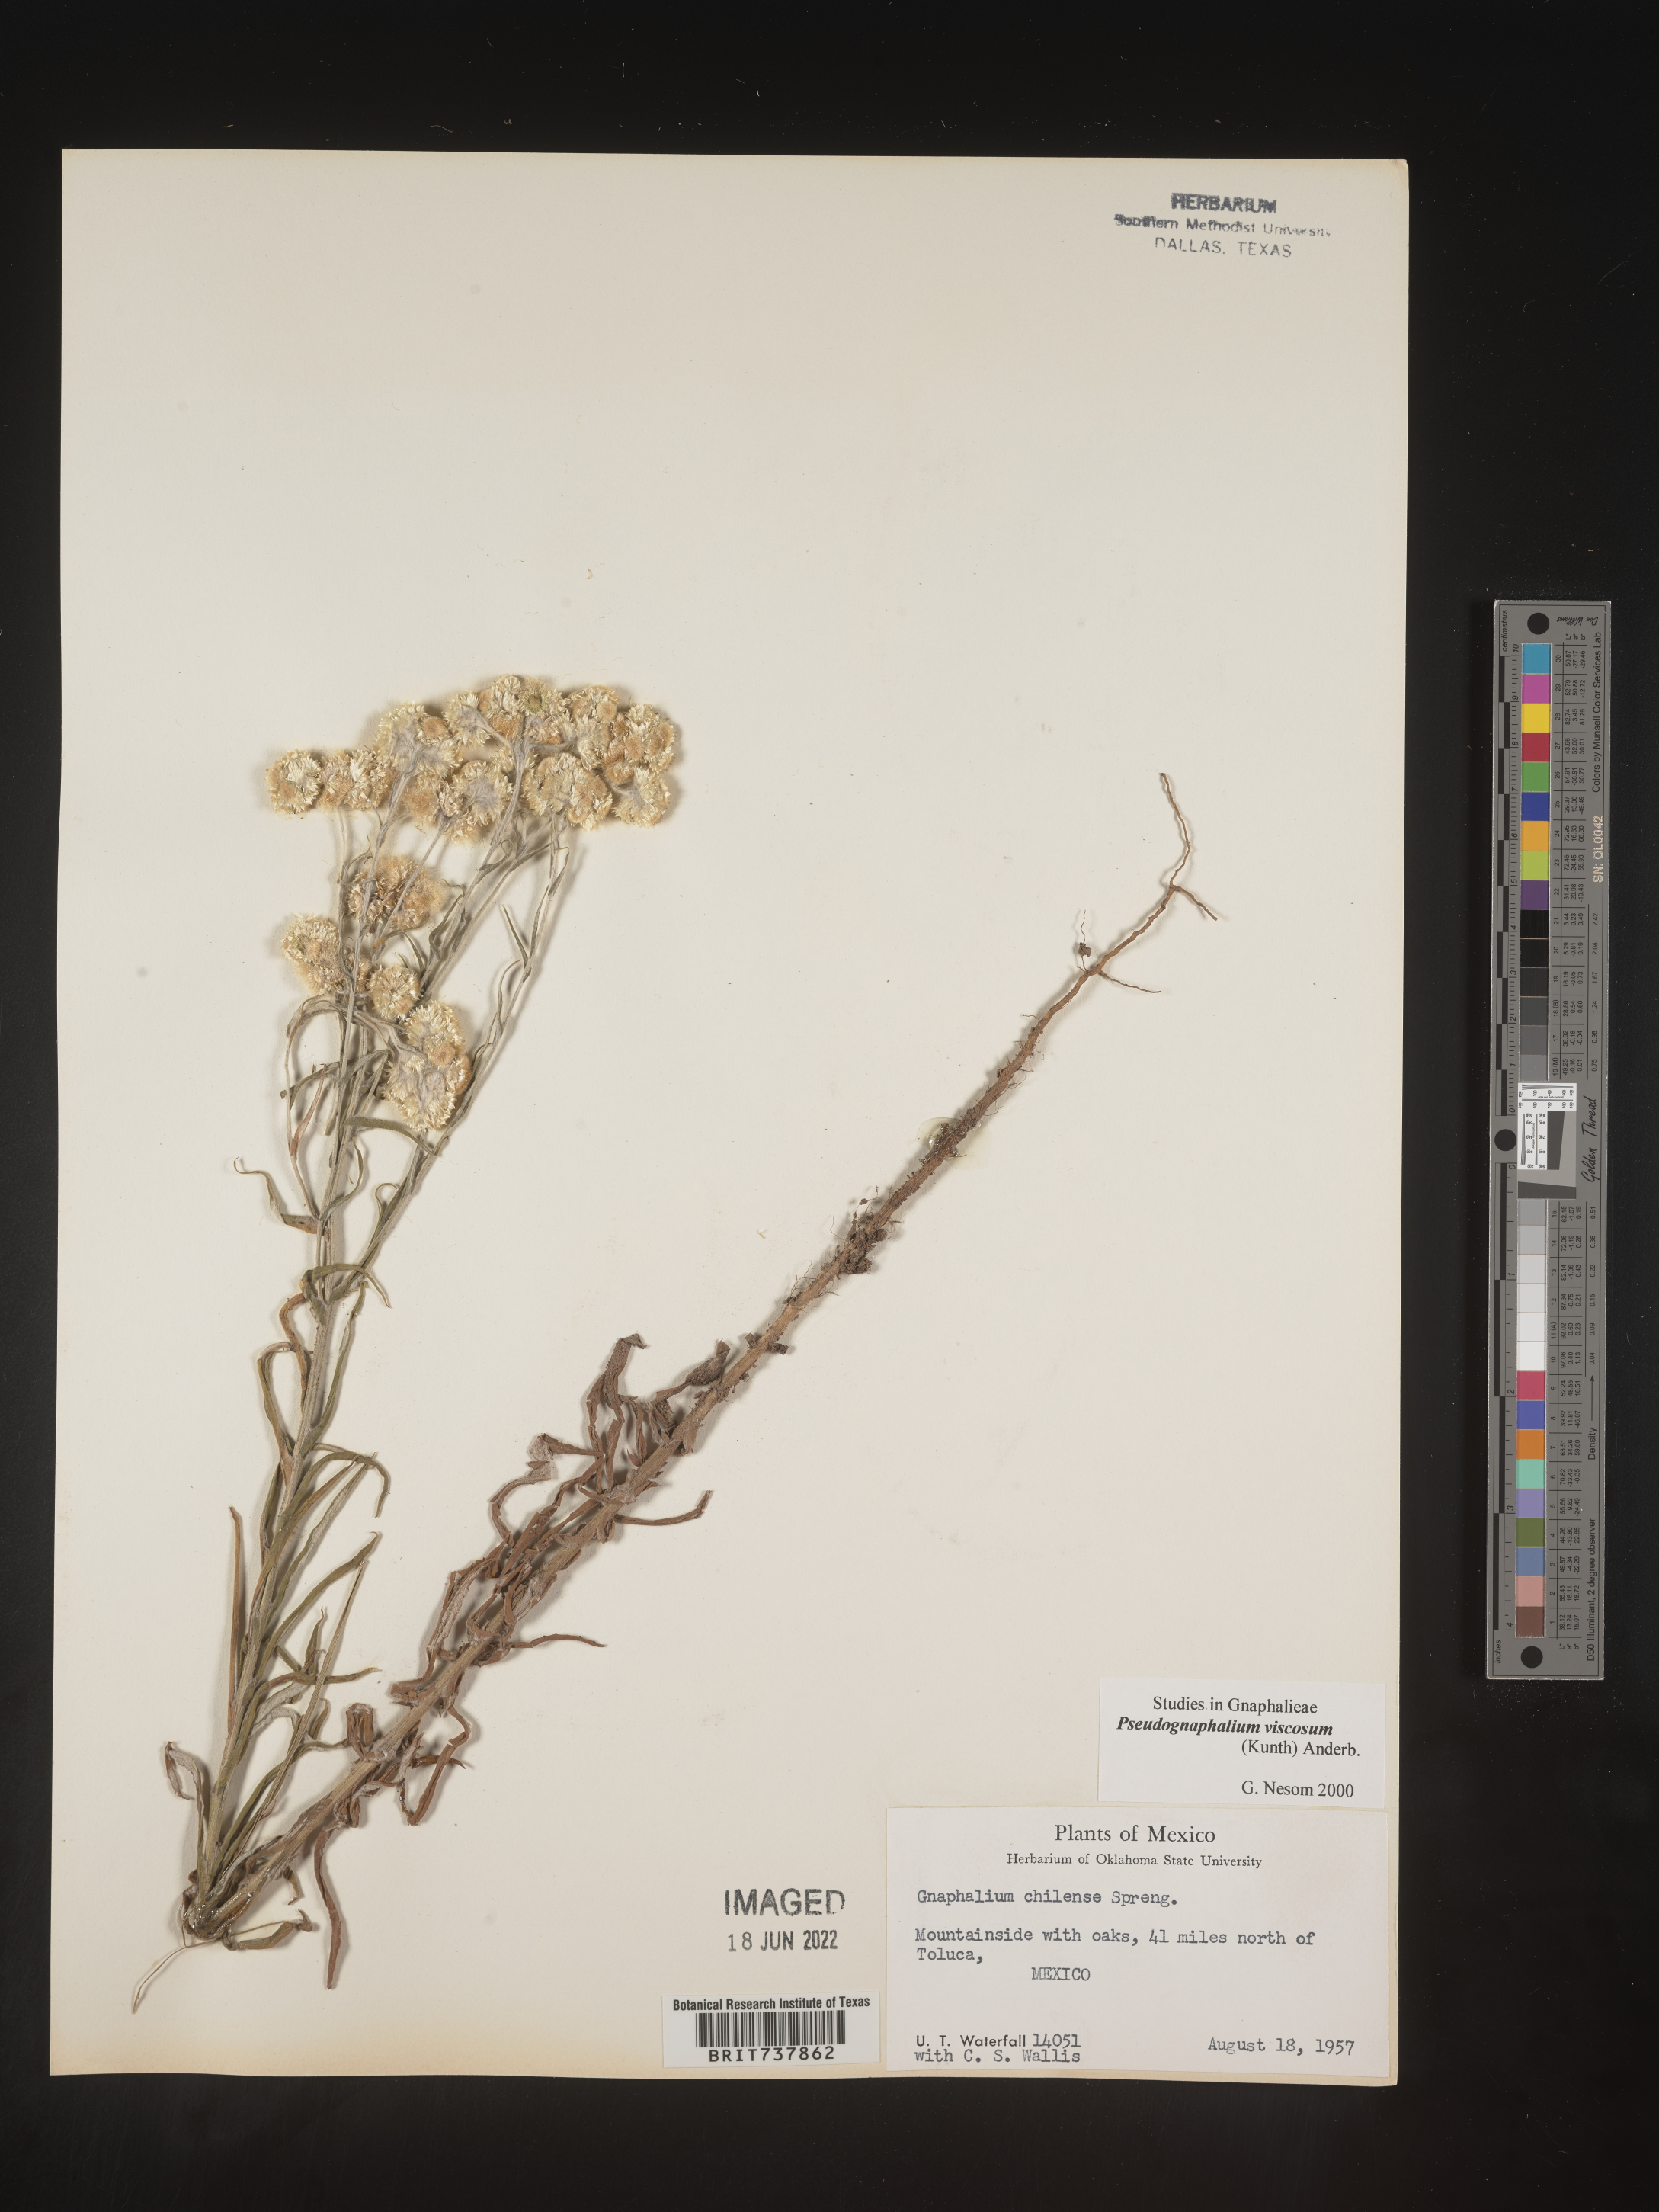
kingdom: Plantae
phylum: Tracheophyta
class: Magnoliopsida
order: Asterales
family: Asteraceae
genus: Pseudognaphalium
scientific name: Pseudognaphalium viscosum
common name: Sticky rabbit-tobacco
